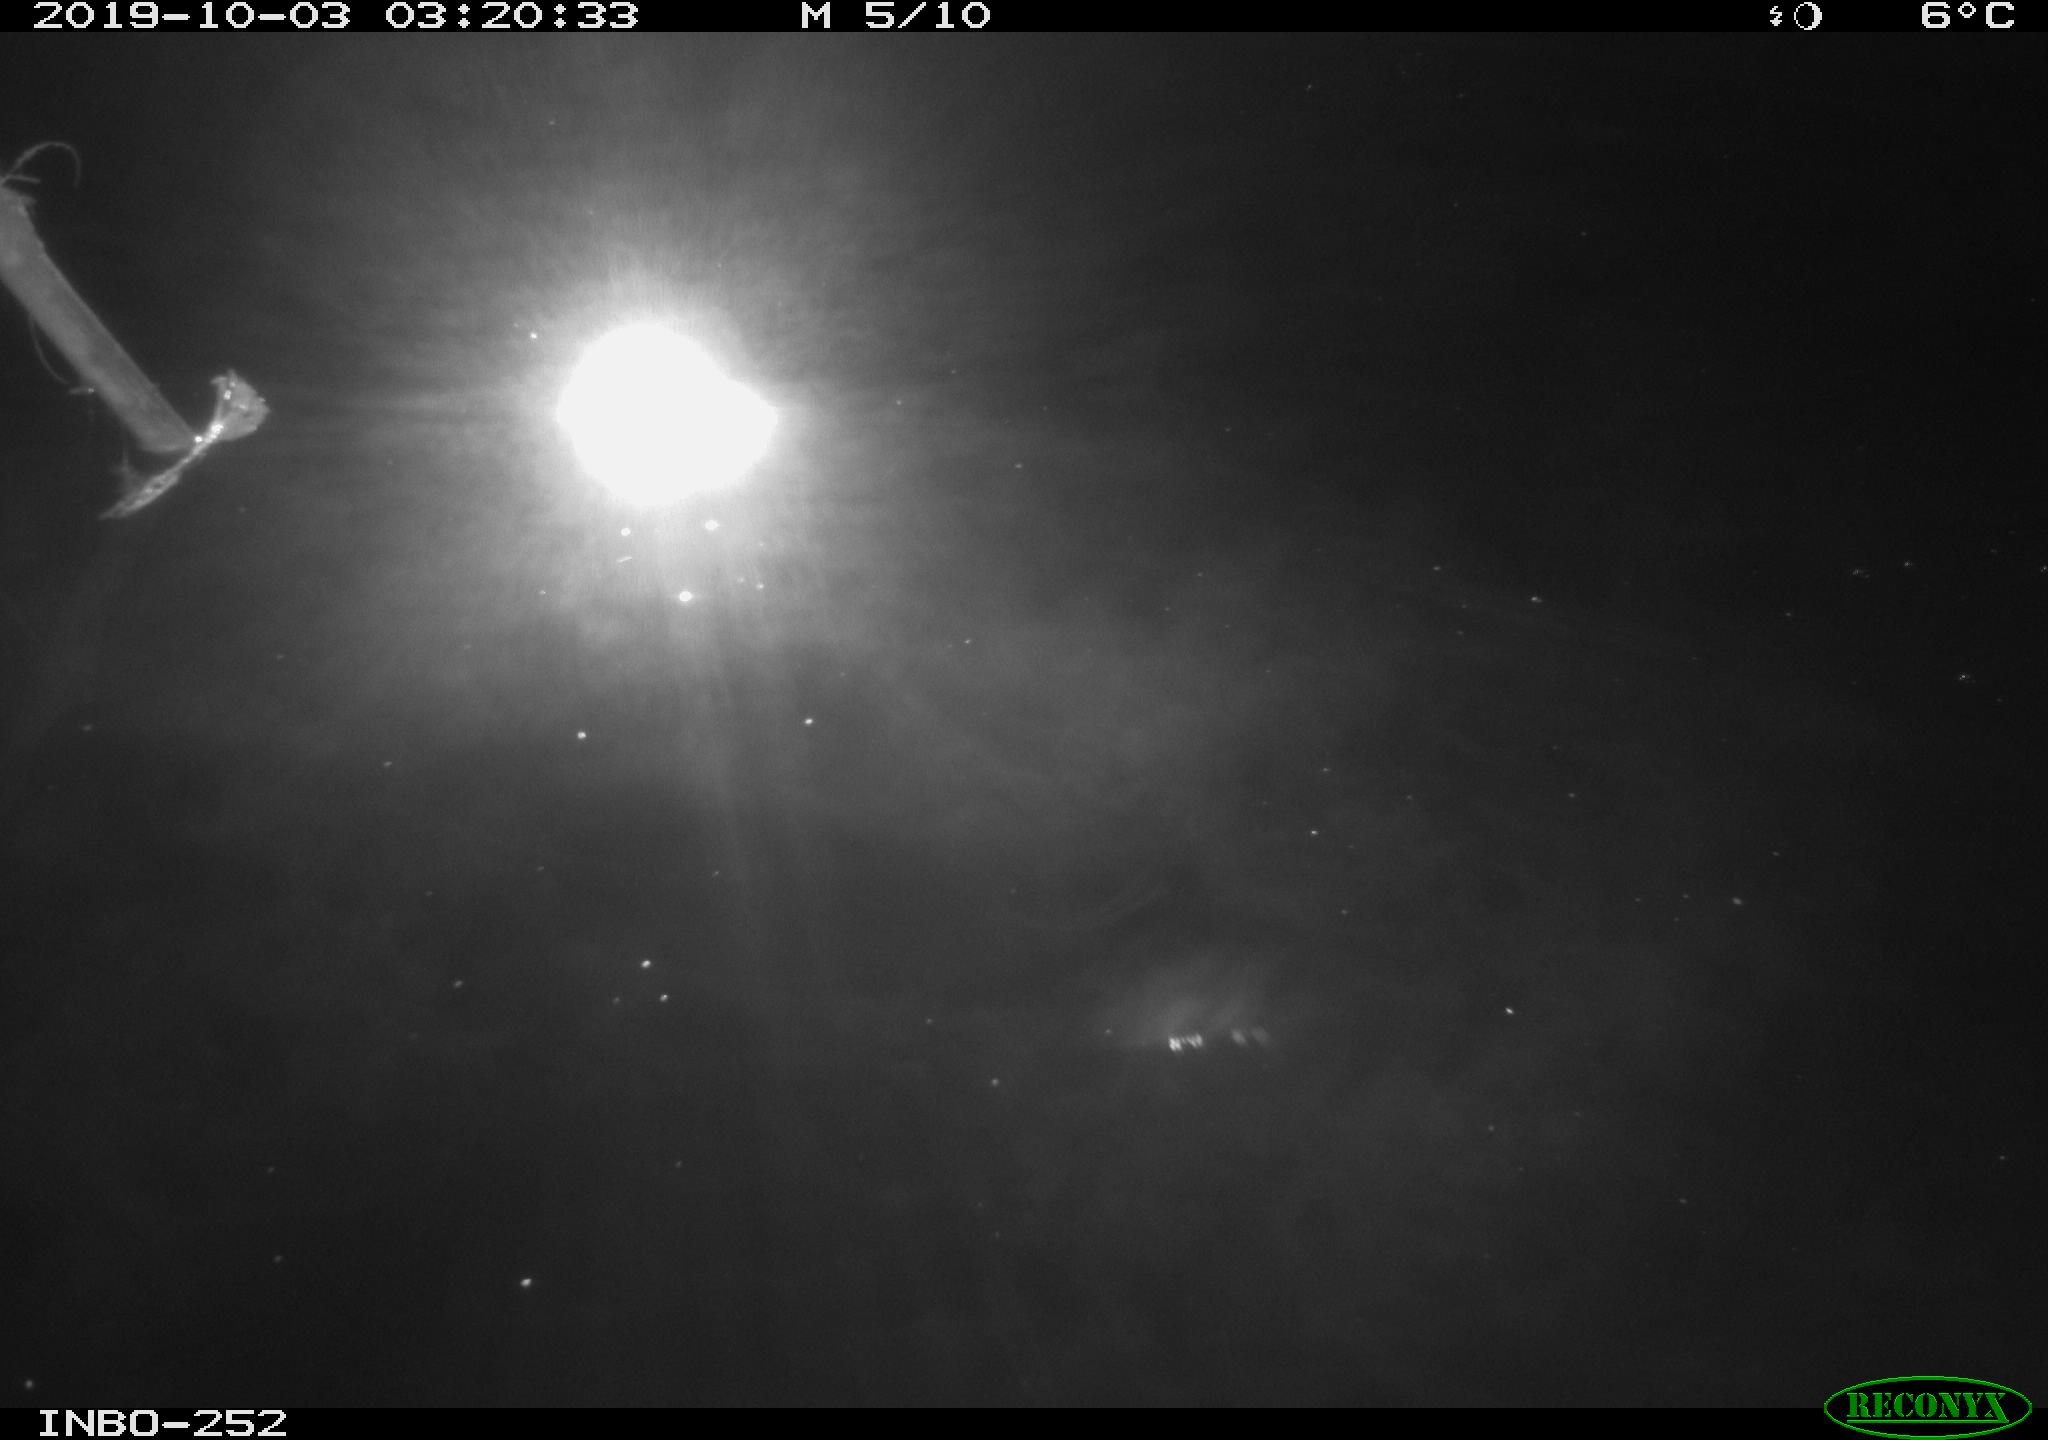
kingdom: Animalia
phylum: Chordata
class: Aves
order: Anseriformes
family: Anatidae
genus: Anas
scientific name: Anas platyrhynchos
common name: Mallard
